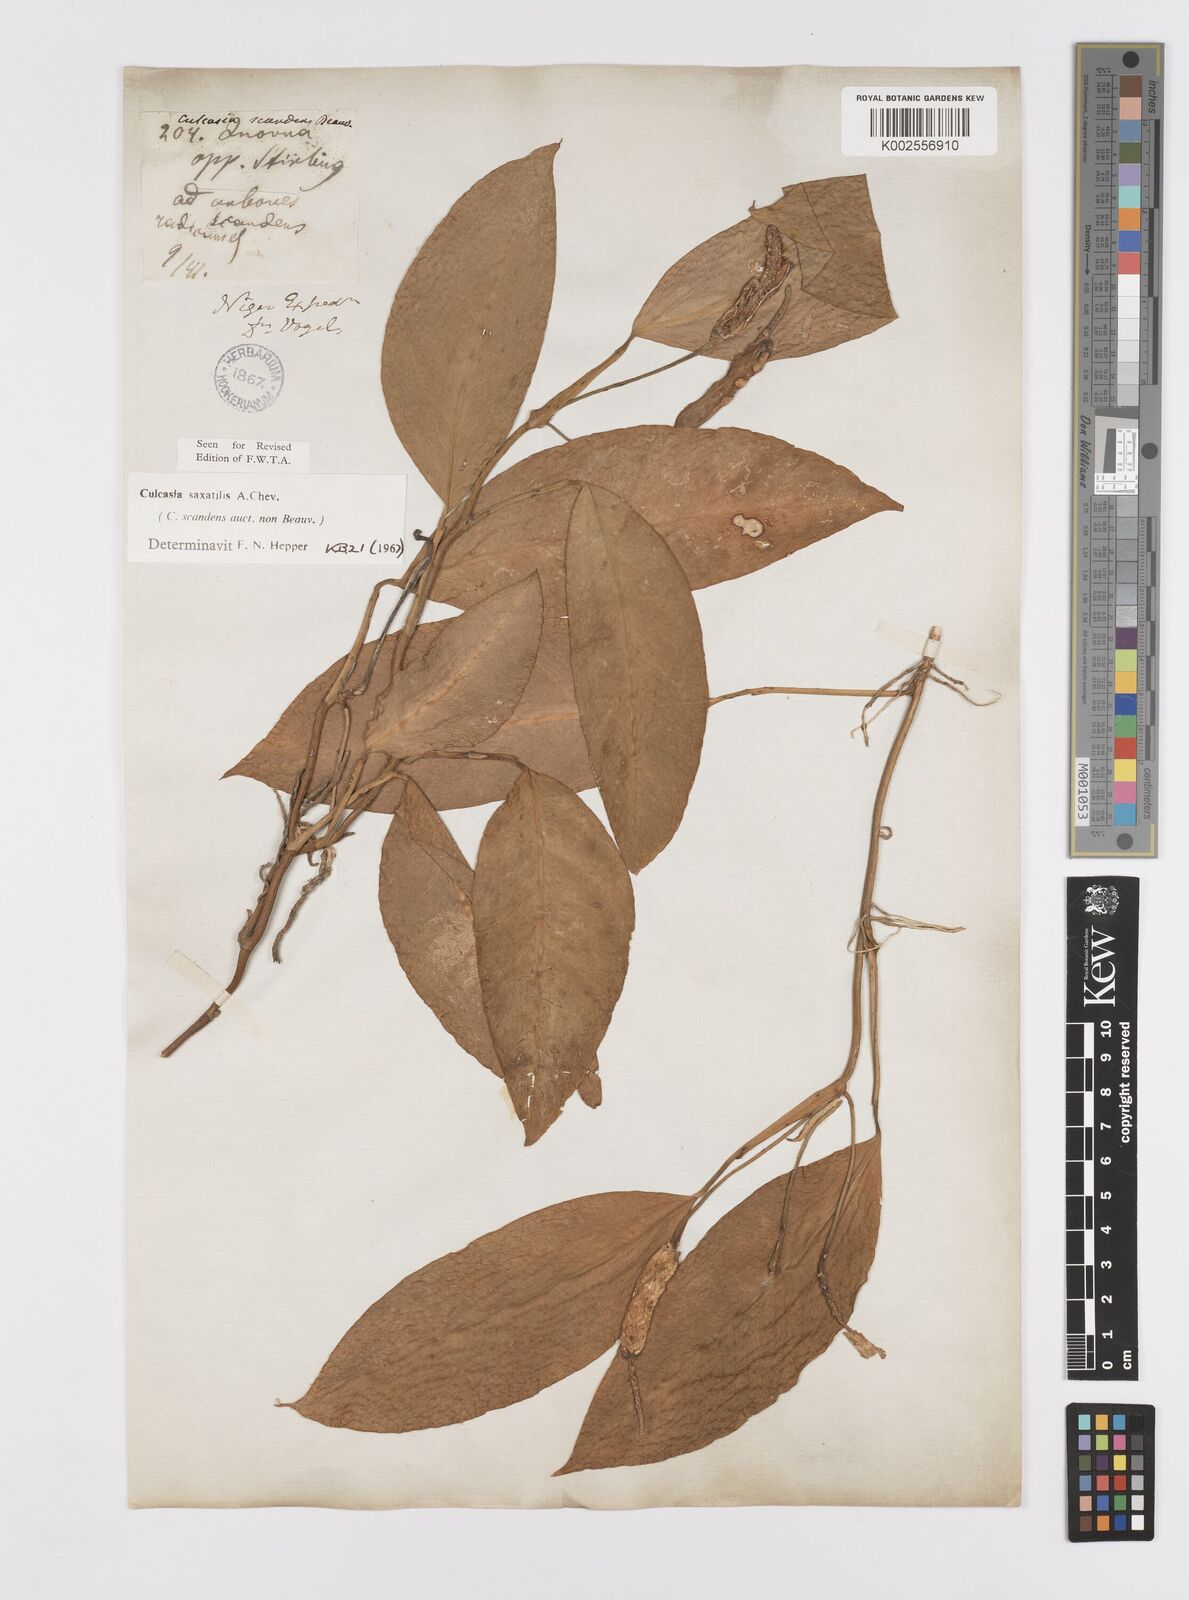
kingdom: Plantae
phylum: Tracheophyta
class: Liliopsida
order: Alismatales
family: Araceae
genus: Culcasia
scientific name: Culcasia scandens
